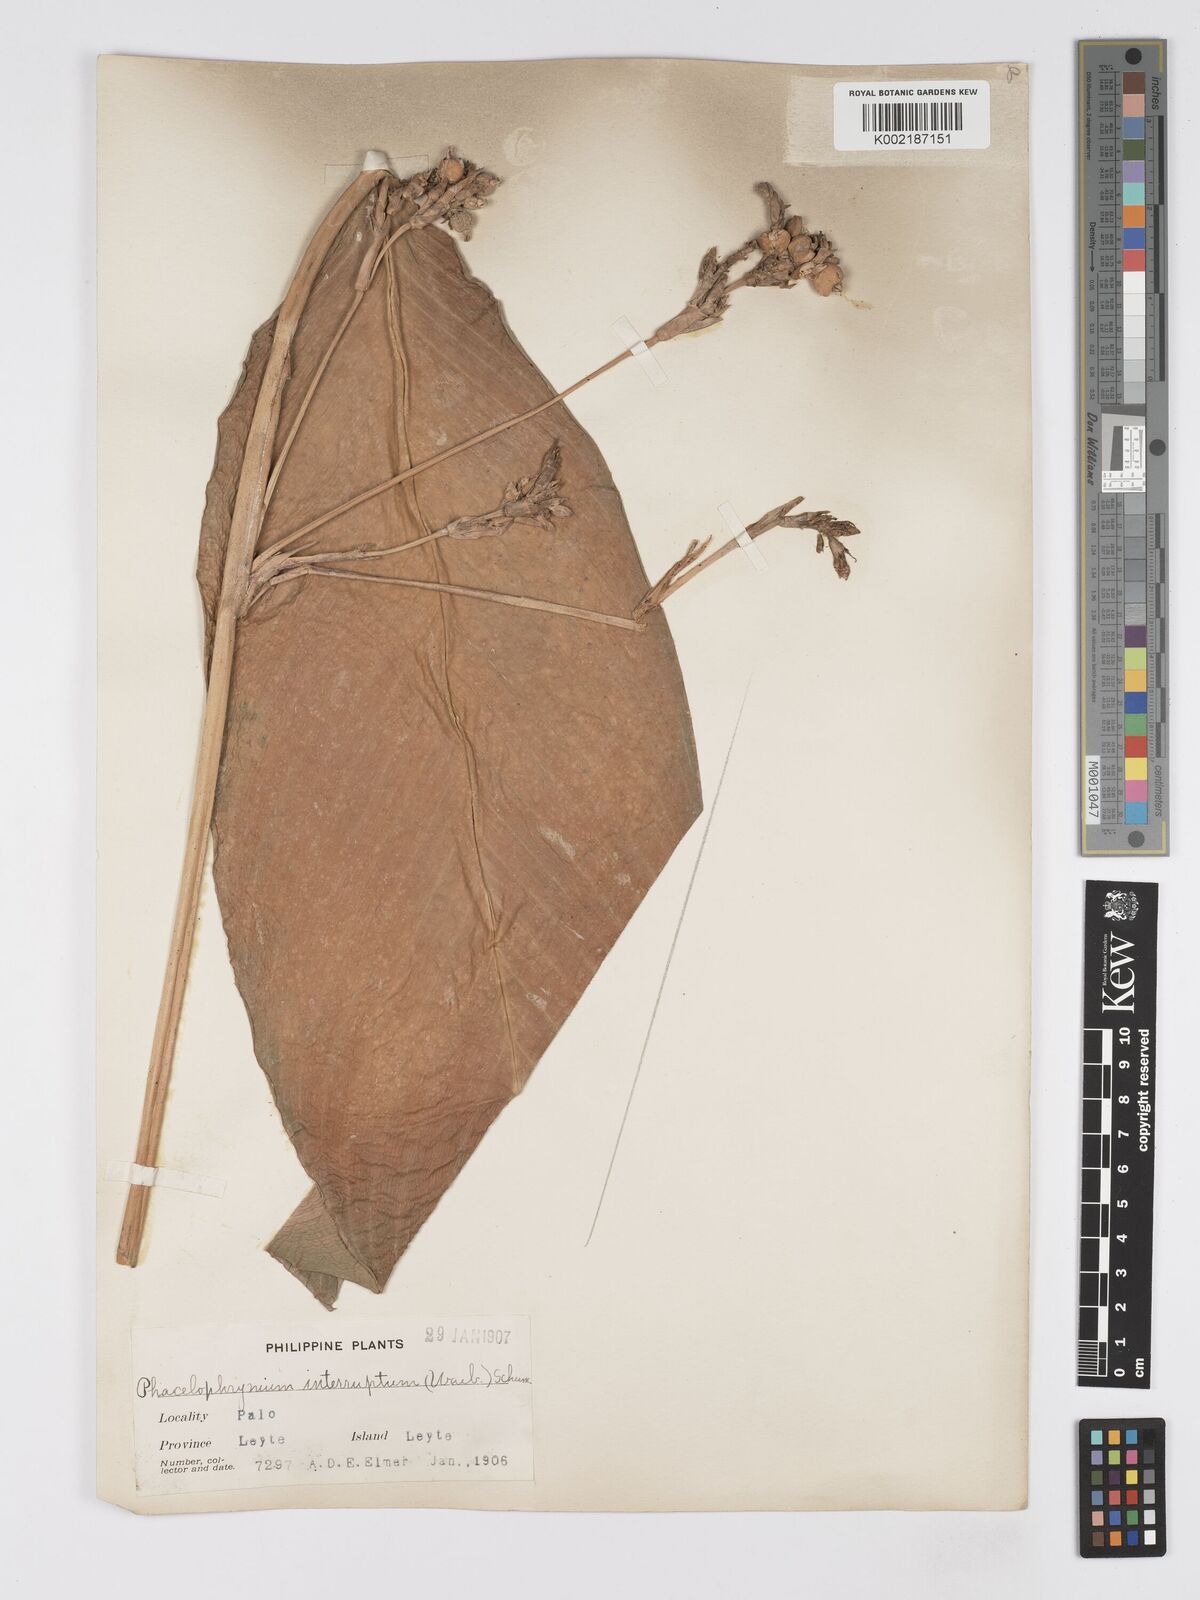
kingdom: Plantae
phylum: Tracheophyta
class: Liliopsida
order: Zingiberales
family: Marantaceae
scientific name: Marantaceae
